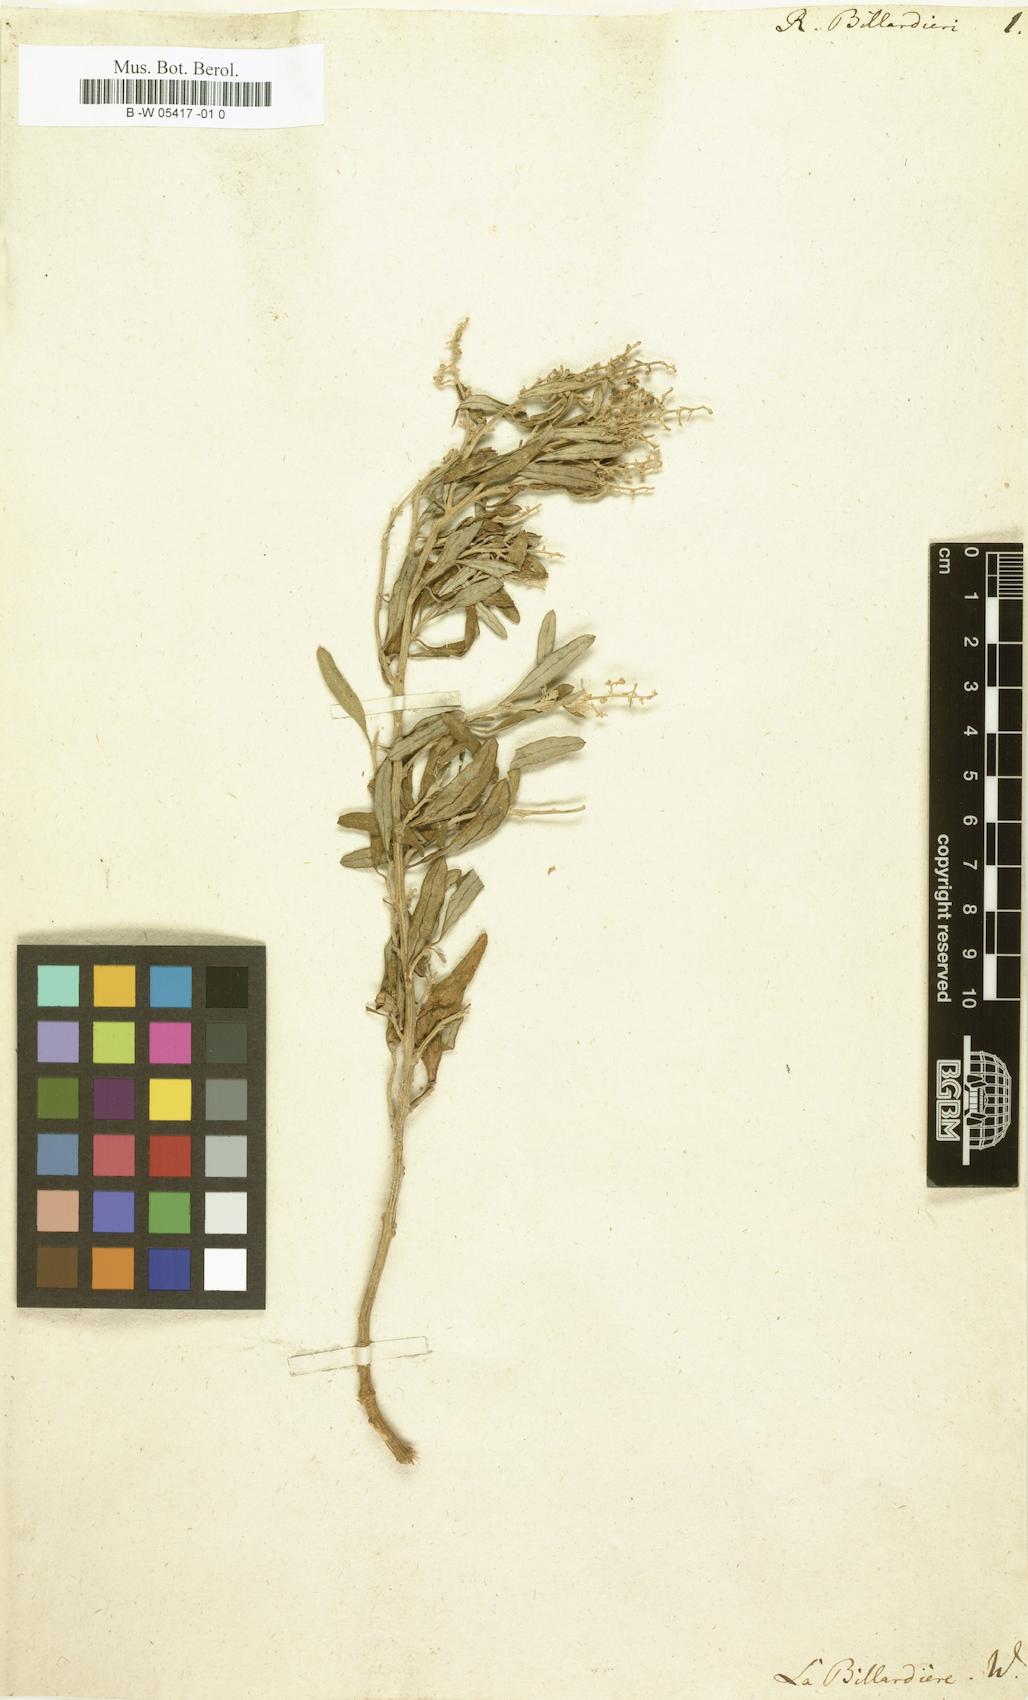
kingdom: Plantae
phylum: Tracheophyta
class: Magnoliopsida
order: Caryophyllales
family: Amaranthaceae
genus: Chenopodium
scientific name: Chenopodium baccatum
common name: Coastal-saltbush
